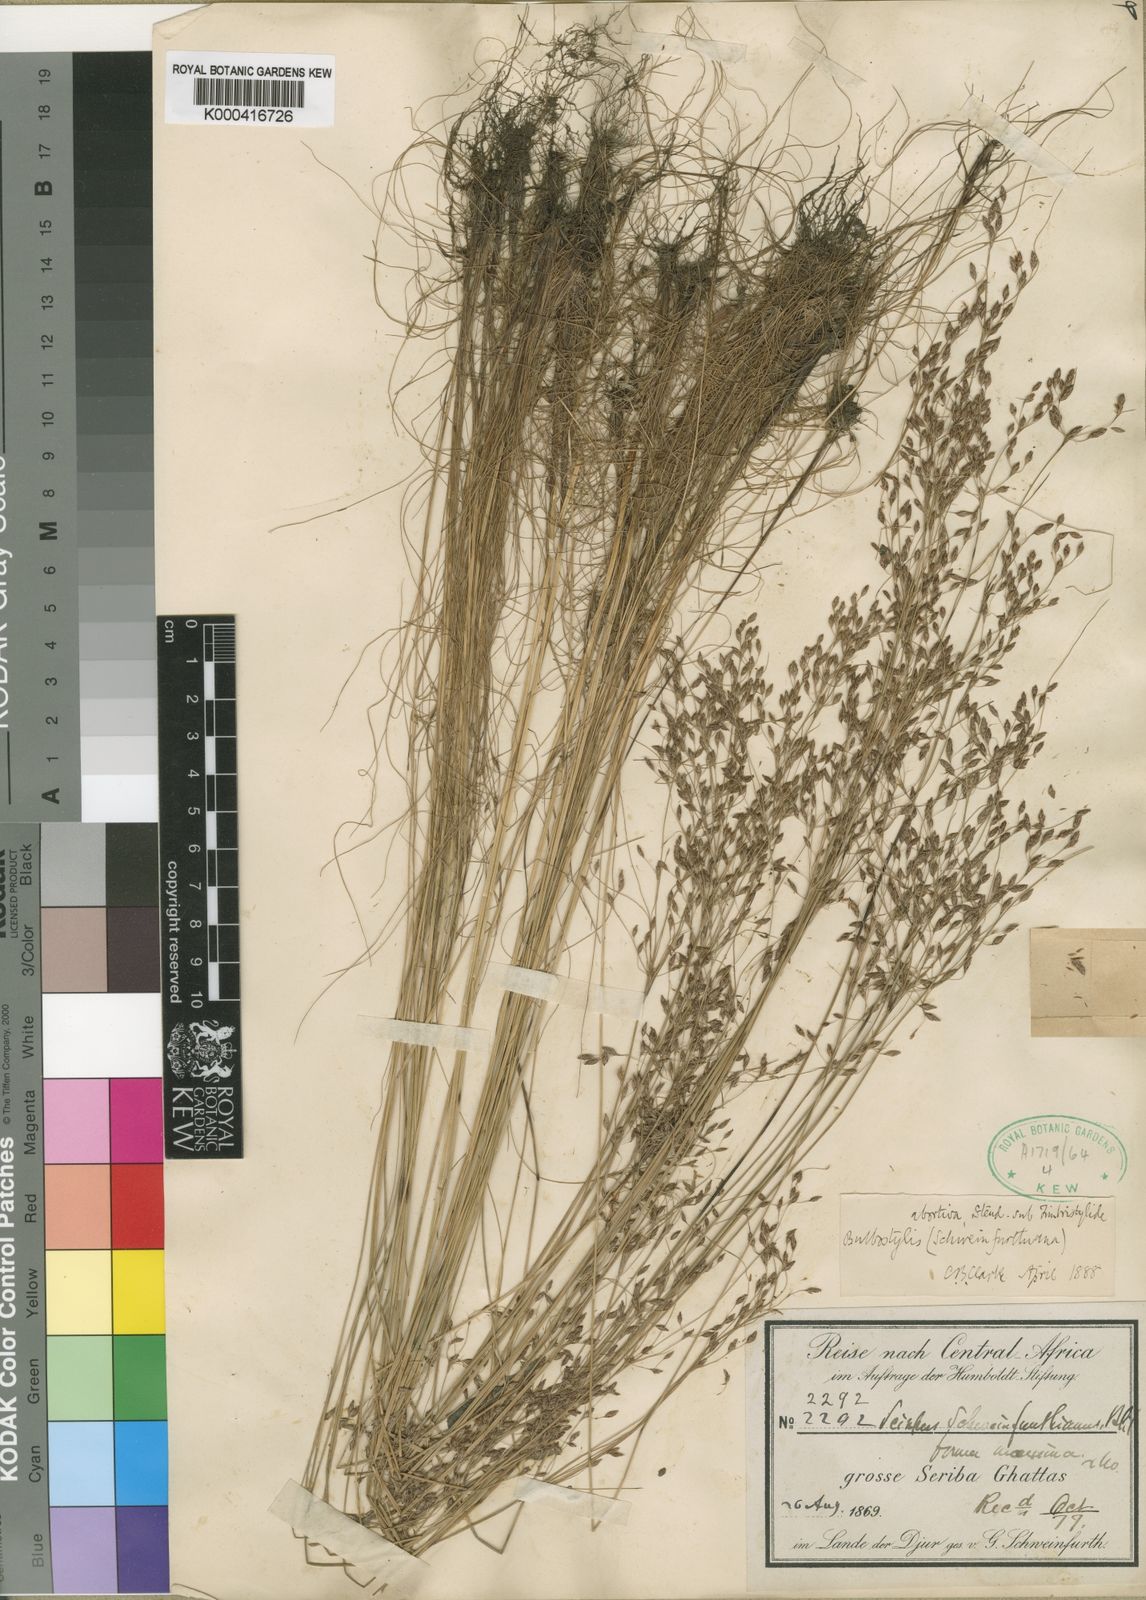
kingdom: Plantae
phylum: Tracheophyta
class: Liliopsida
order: Poales
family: Cyperaceae
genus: Bulbostylis
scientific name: Bulbostylis abortiva
